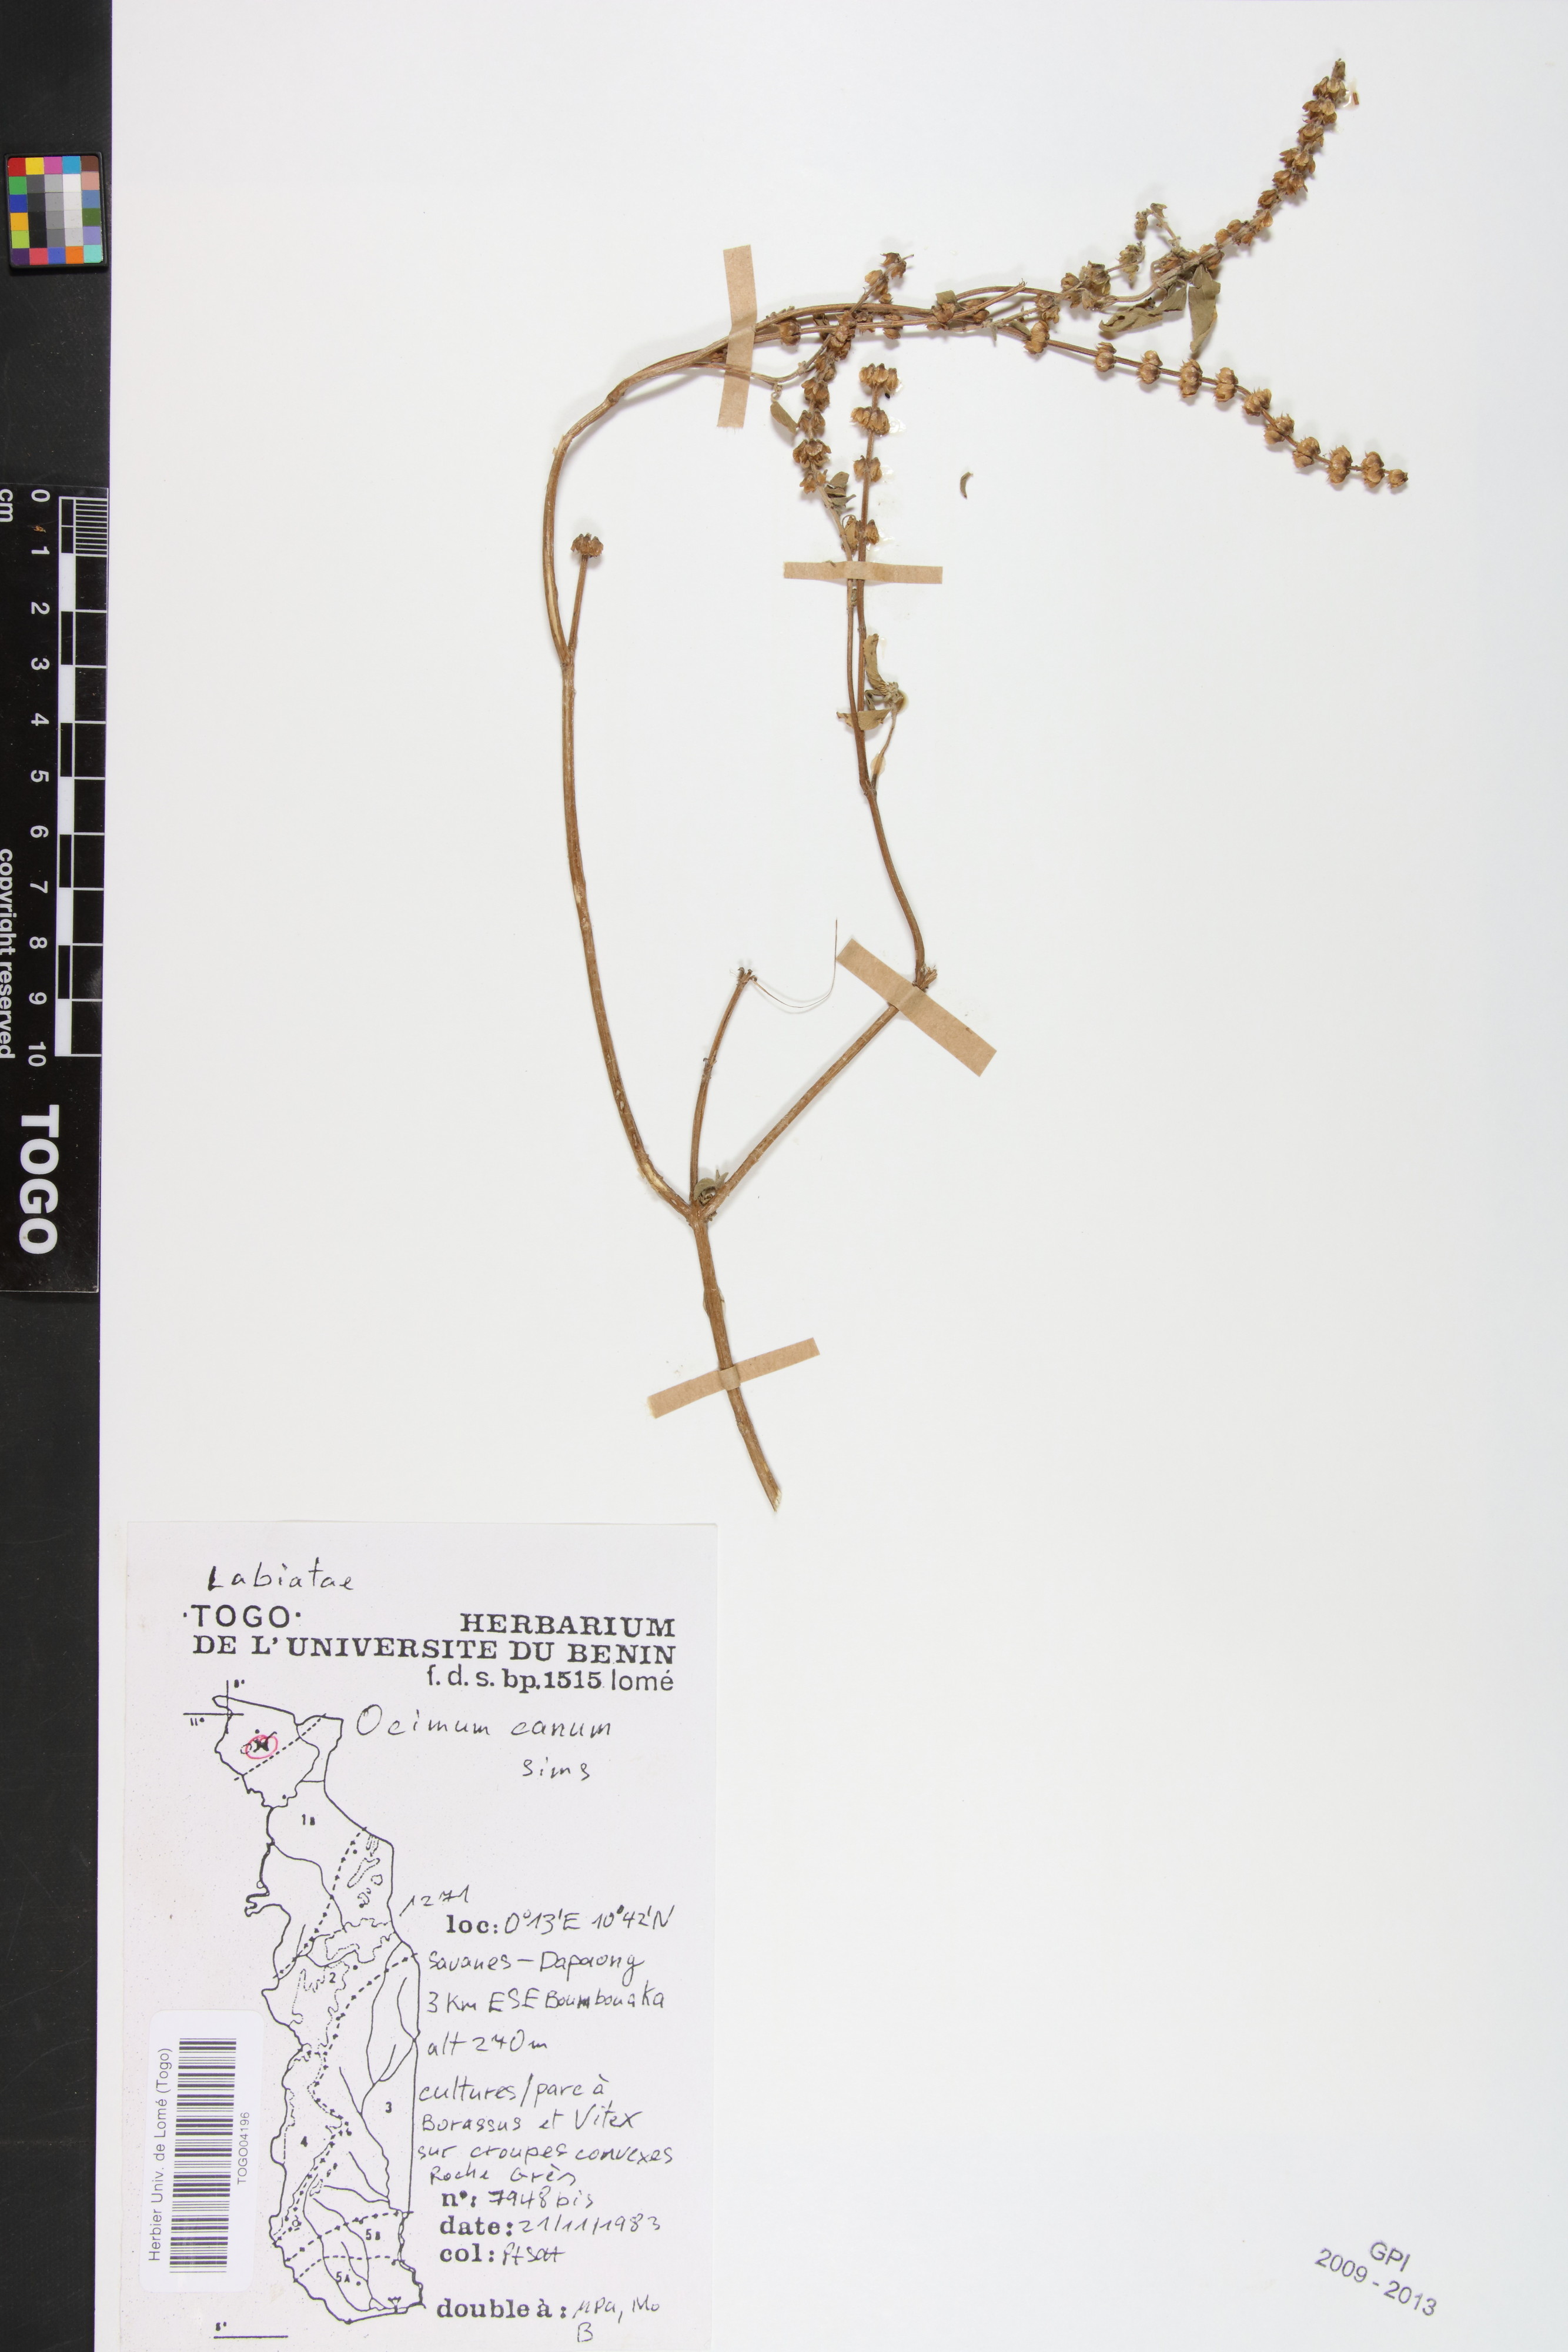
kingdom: Plantae
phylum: Tracheophyta
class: Magnoliopsida
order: Lamiales
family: Lamiaceae
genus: Ocimum
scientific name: Ocimum americanum
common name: American basil
